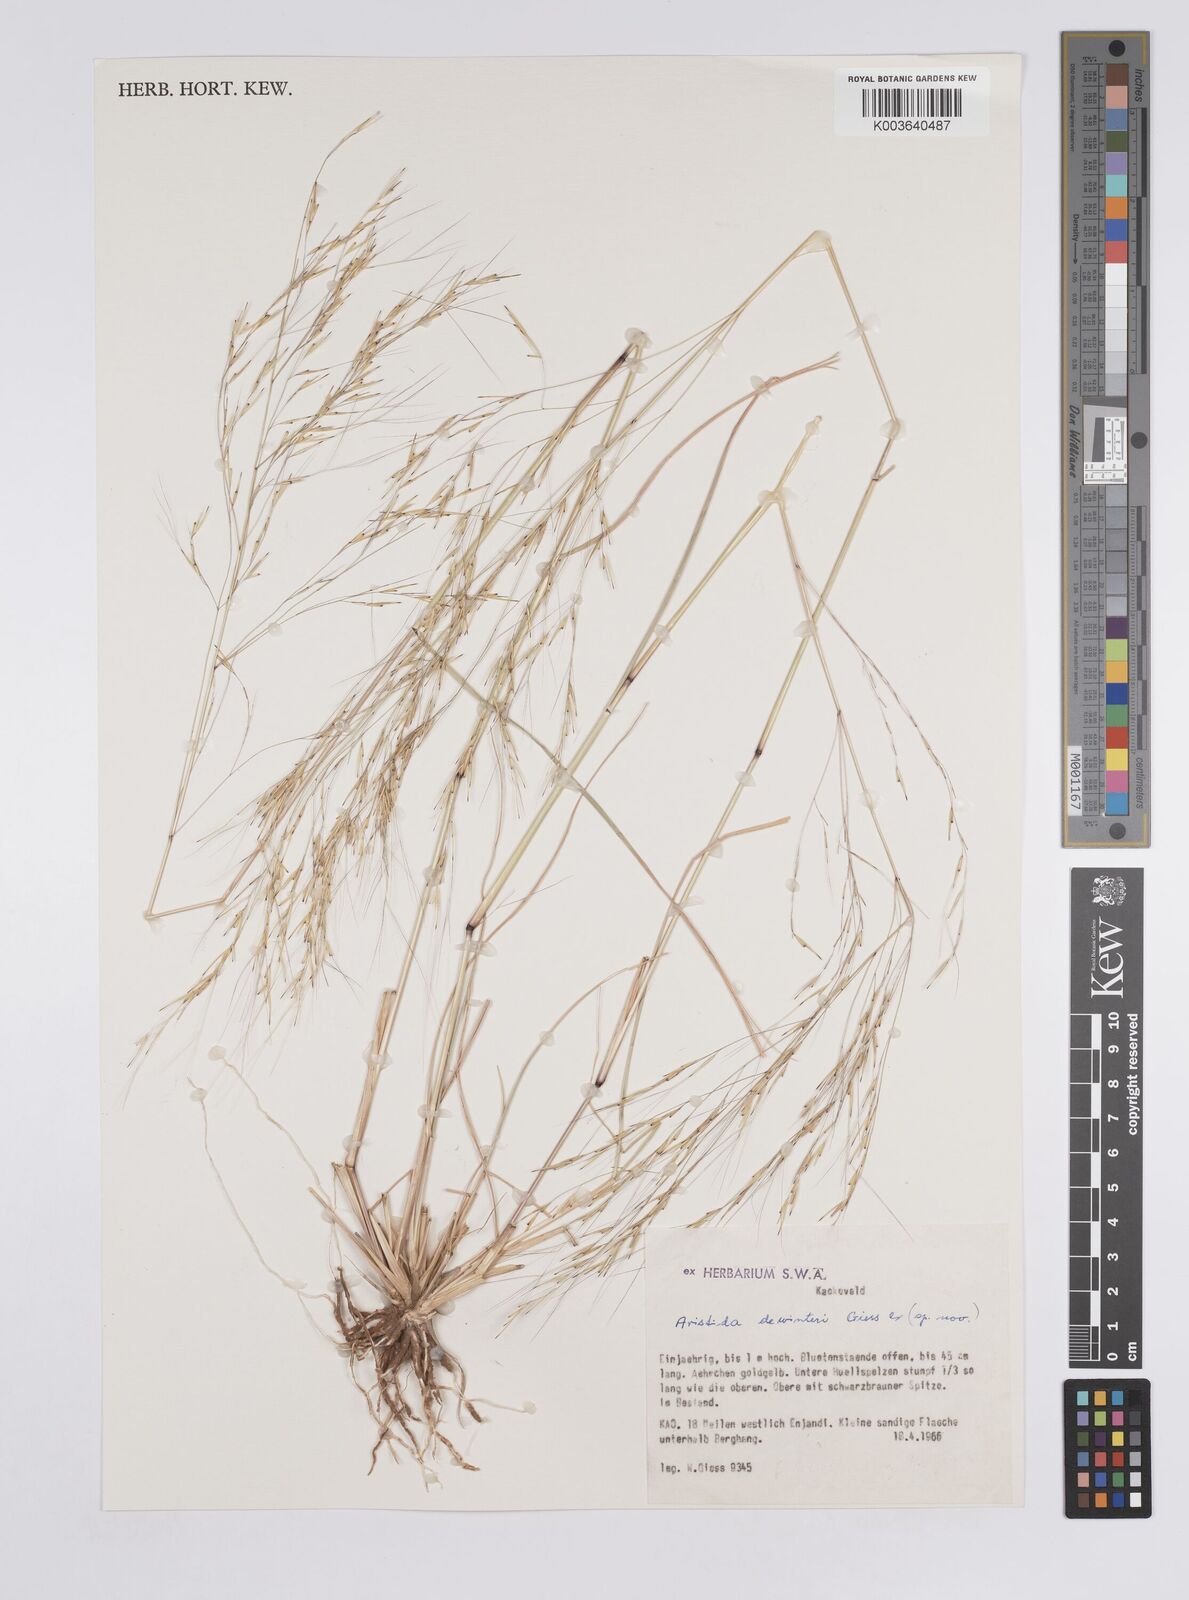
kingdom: Plantae
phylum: Tracheophyta
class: Liliopsida
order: Poales
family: Poaceae
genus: Aristida
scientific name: Aristida dewinteri
